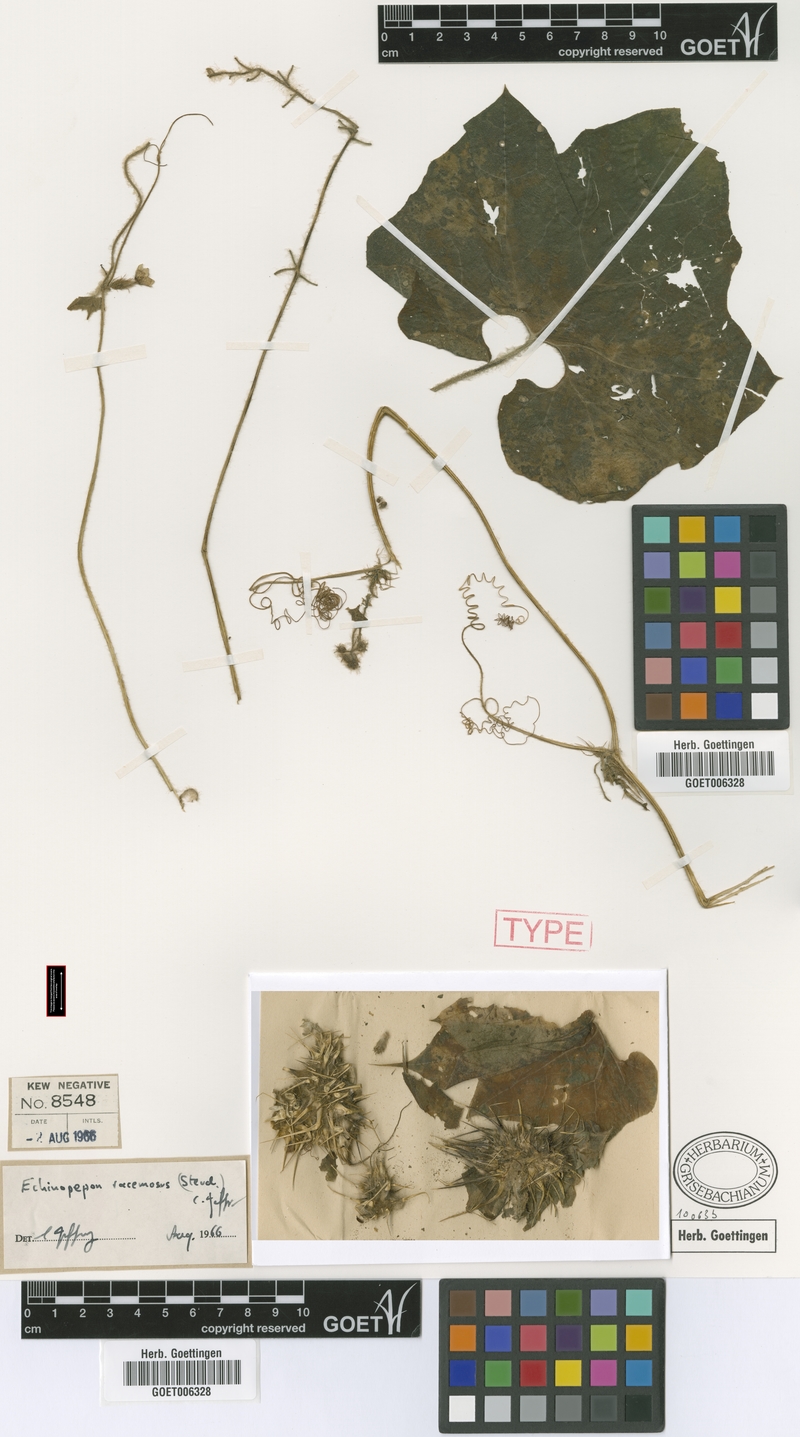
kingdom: Plantae
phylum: Tracheophyta
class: Magnoliopsida
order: Cucurbitales
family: Cucurbitaceae
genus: Echinopepon
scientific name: Echinopepon racemosus
